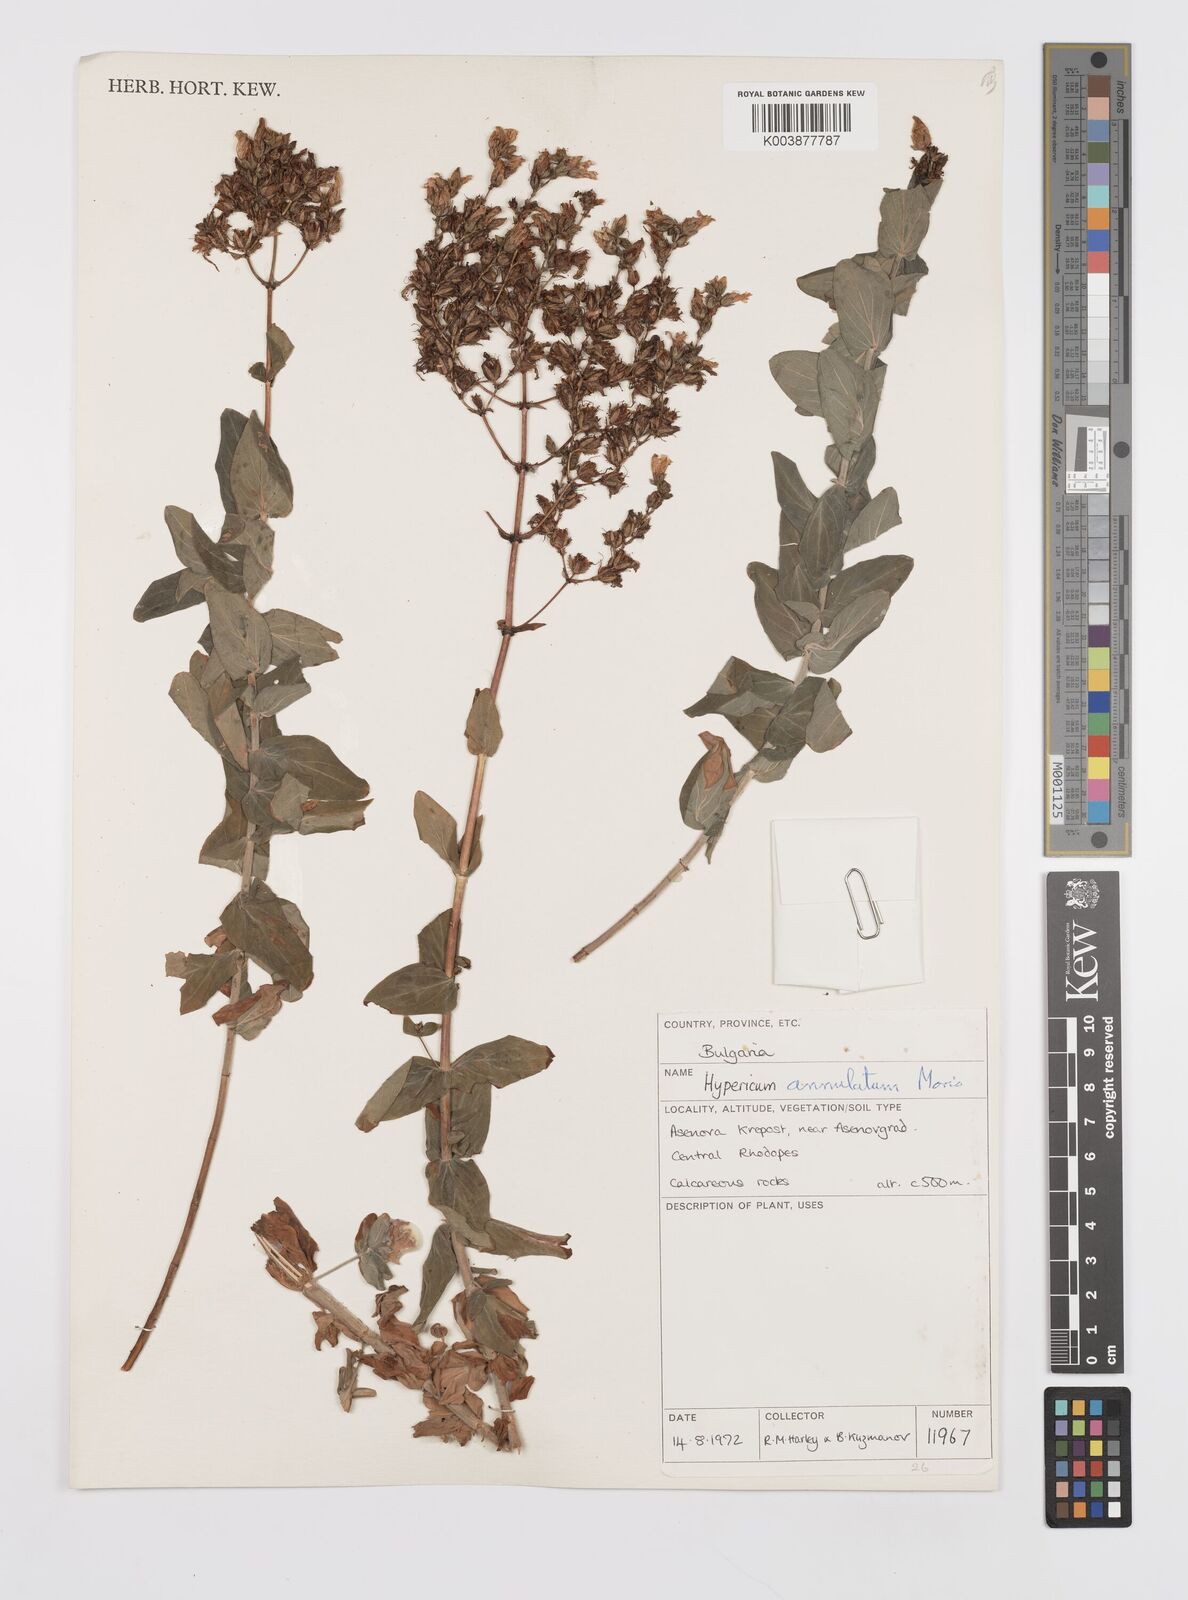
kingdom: Plantae
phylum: Tracheophyta
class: Magnoliopsida
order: Malpighiales
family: Hypericaceae
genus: Hypericum
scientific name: Hypericum annulatum
